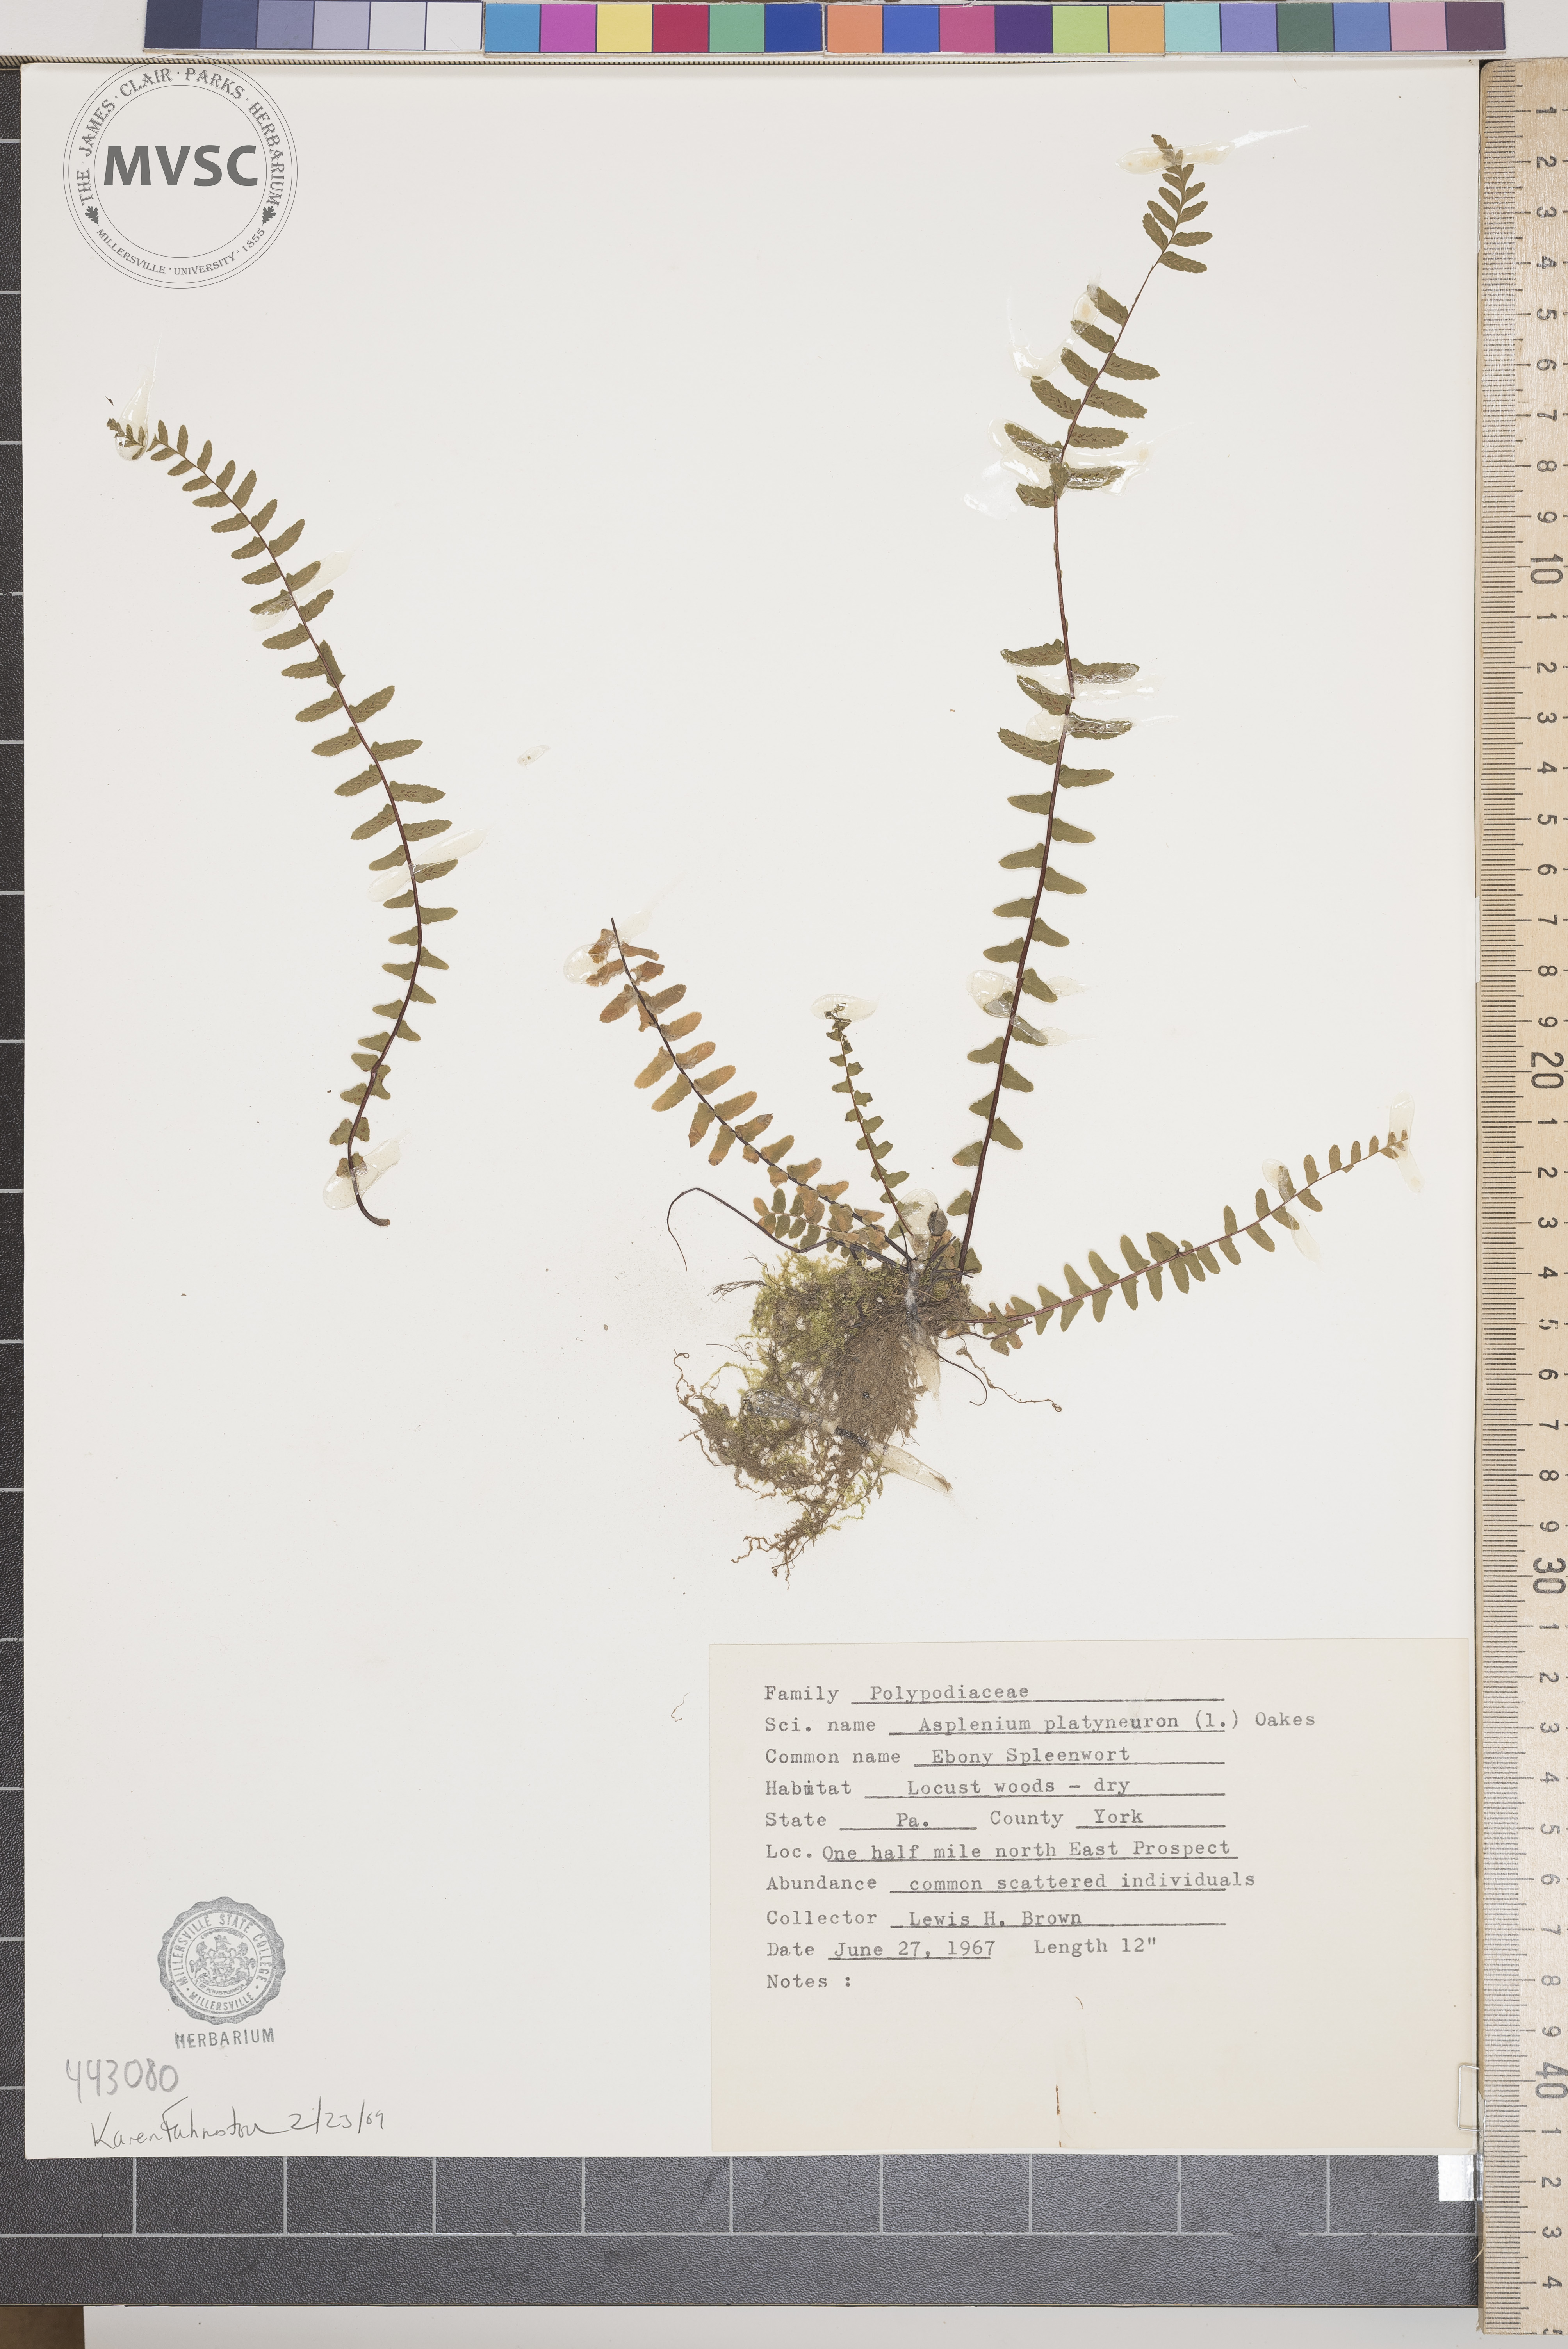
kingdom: Plantae
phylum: Tracheophyta
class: Polypodiopsida
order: Polypodiales
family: Aspleniaceae
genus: Asplenium
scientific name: Asplenium platyneuron
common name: Ebony spleenwort
